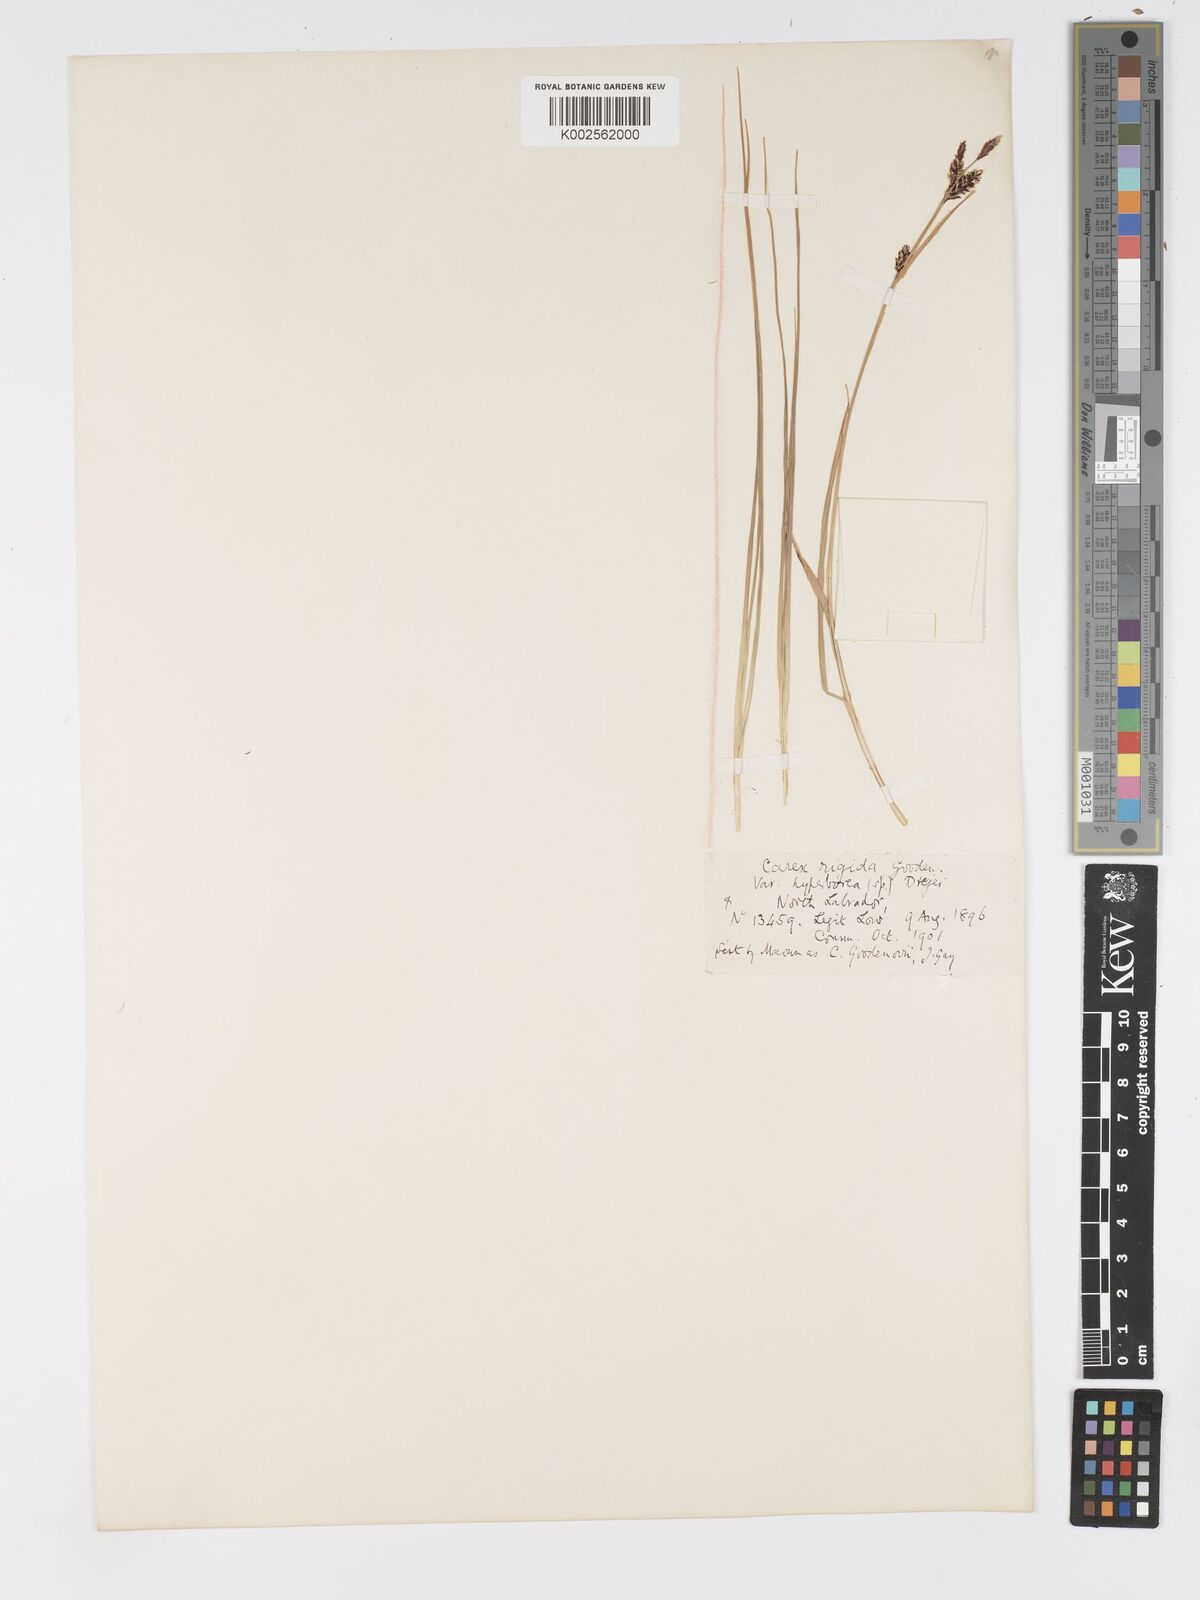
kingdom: Plantae
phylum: Tracheophyta
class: Liliopsida
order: Poales
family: Cyperaceae
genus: Carex
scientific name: Carex bigelowii
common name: Stiff sedge
